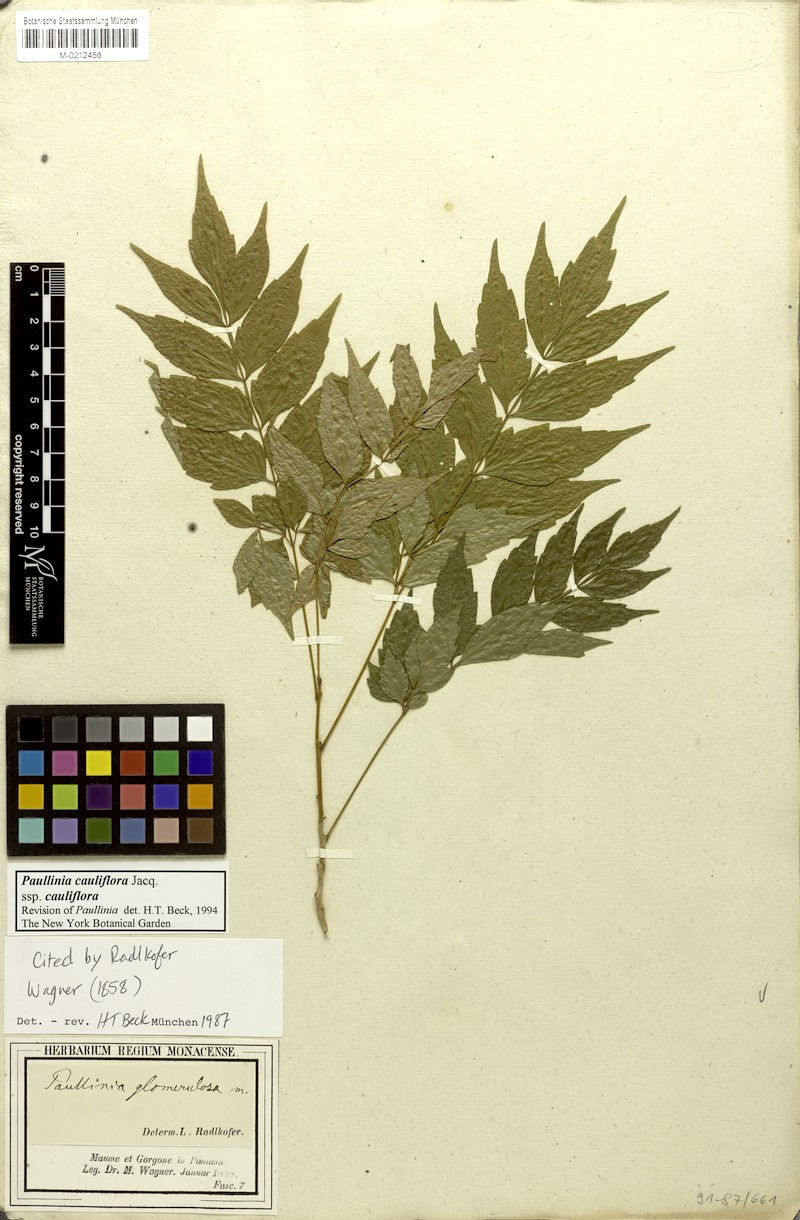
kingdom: Plantae
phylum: Tracheophyta
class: Magnoliopsida
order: Sapindales
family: Sapindaceae
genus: Paullinia
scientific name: Paullinia cauliflora
